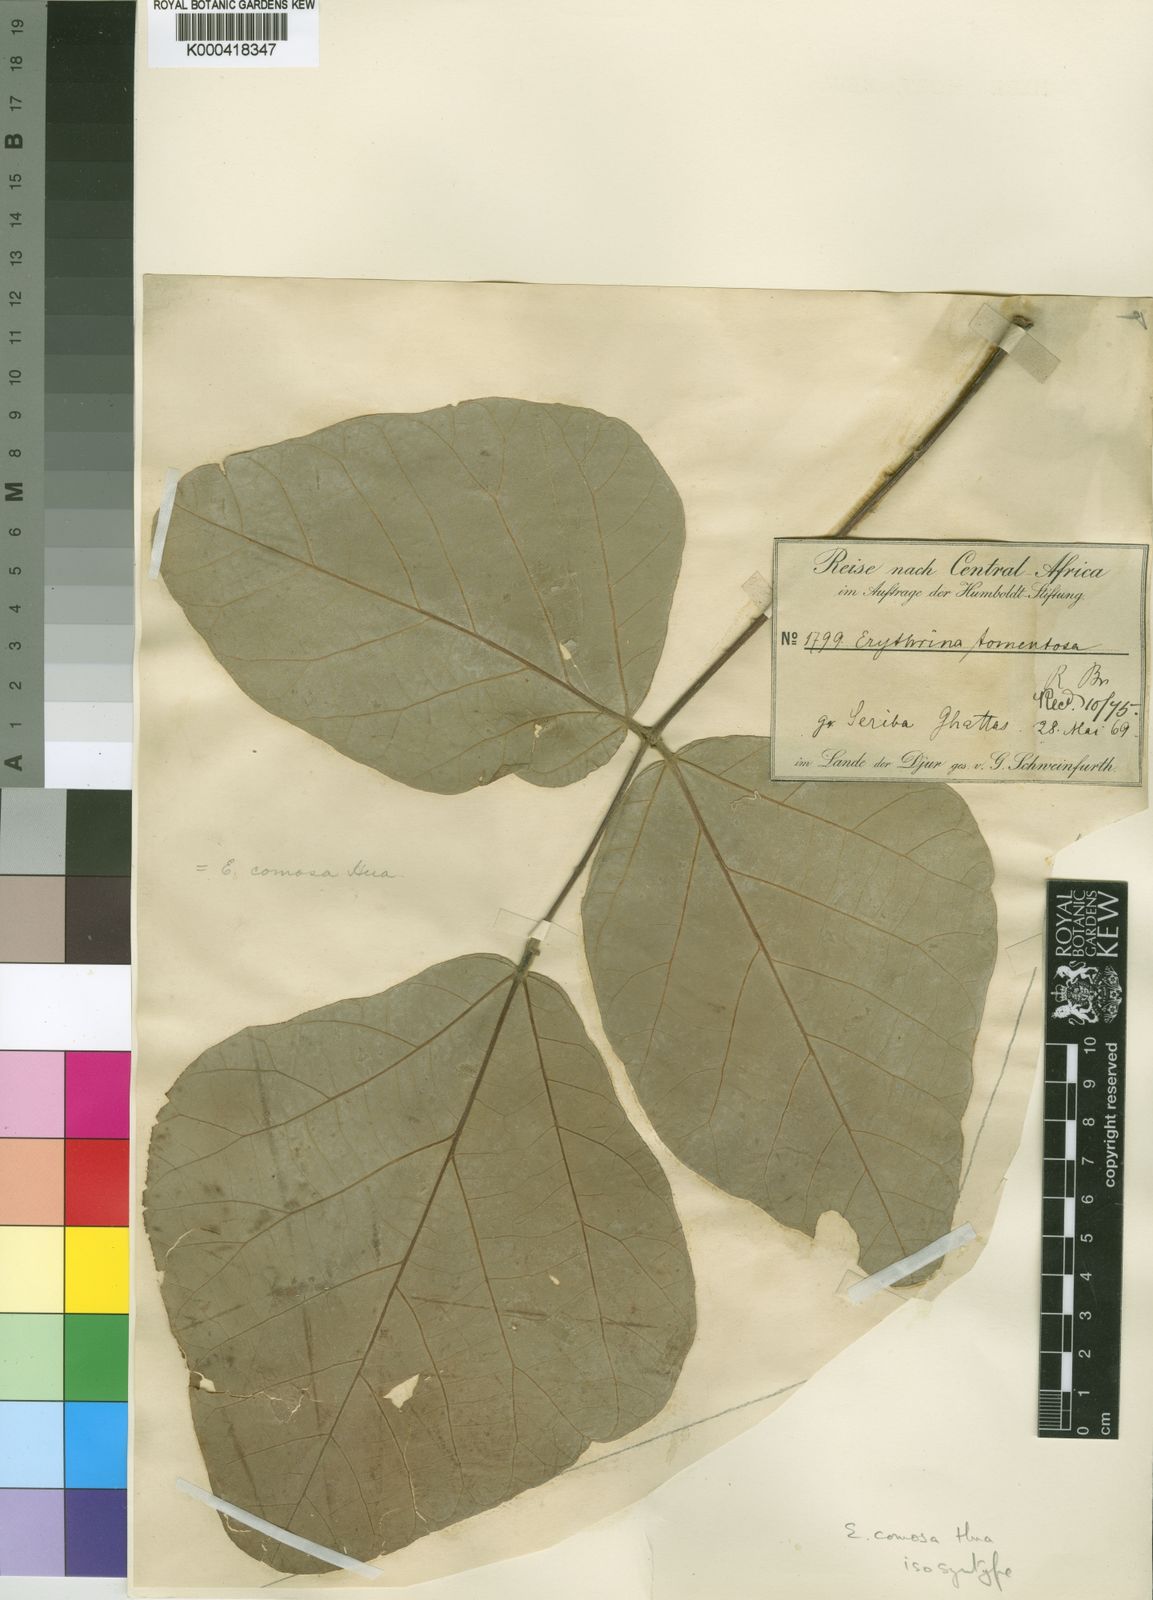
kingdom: Plantae
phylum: Tracheophyta
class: Magnoliopsida
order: Fabales
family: Fabaceae
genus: Erythrina
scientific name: Erythrina
